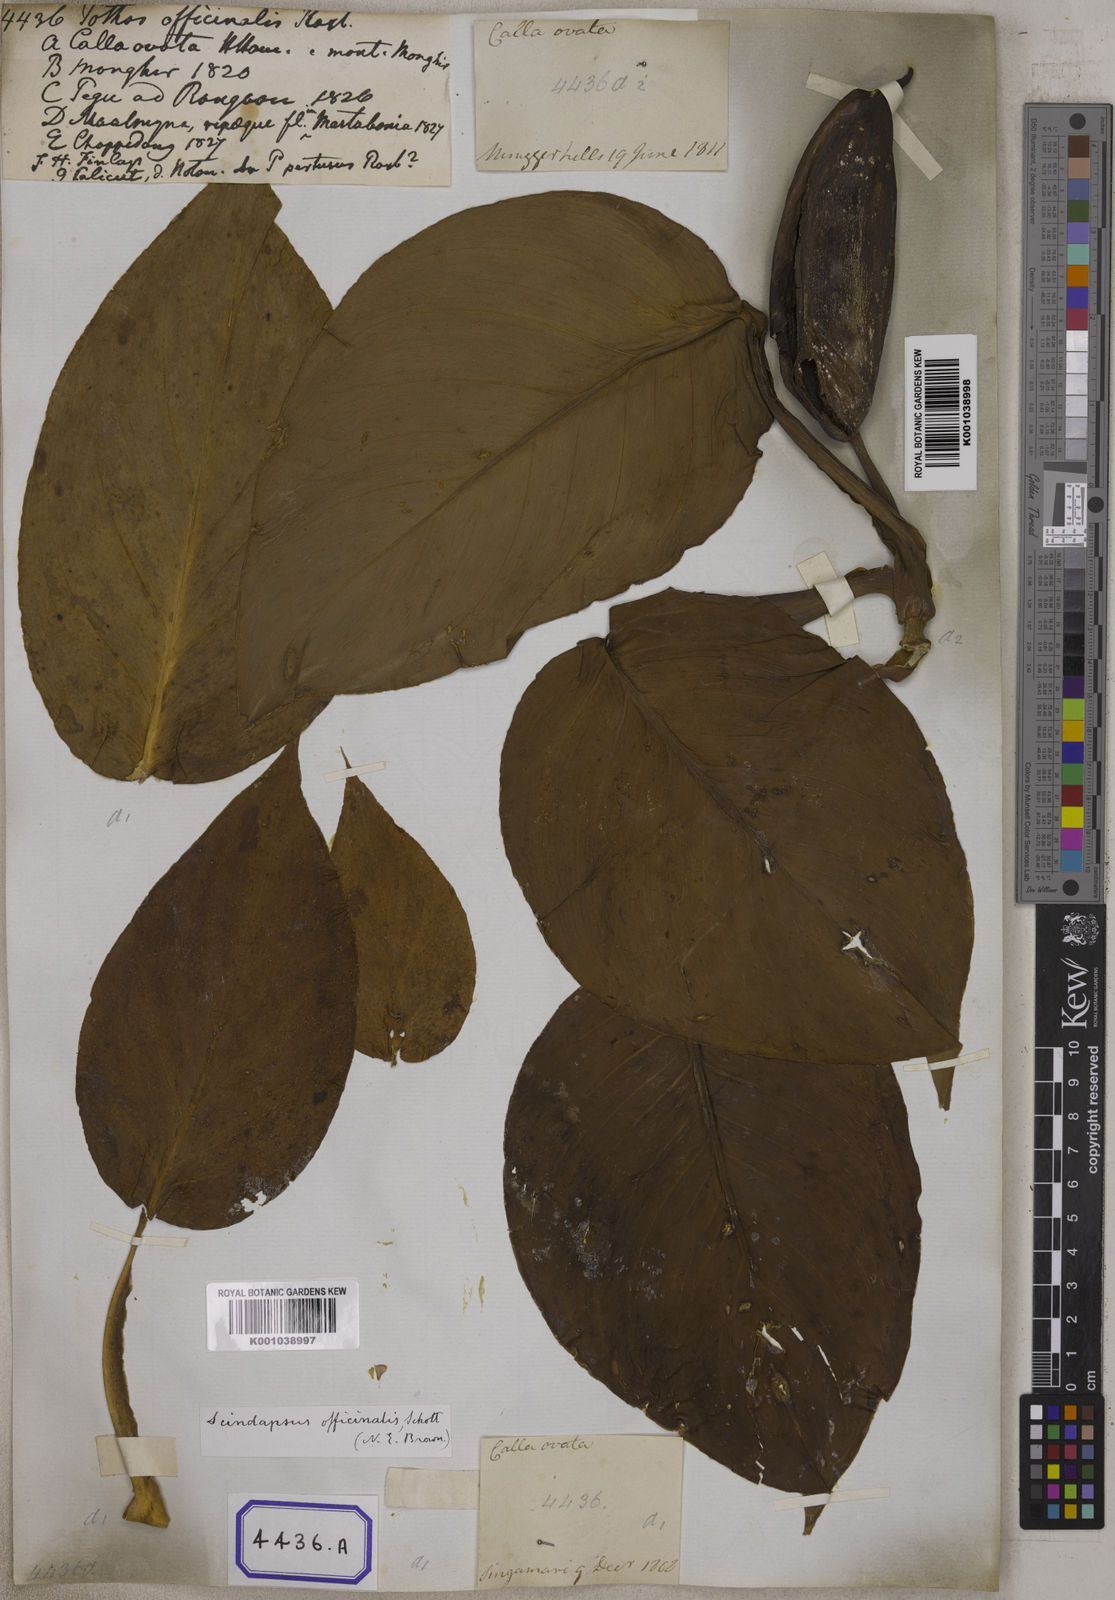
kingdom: Plantae
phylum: Tracheophyta
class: Liliopsida
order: Alismatales
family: Araceae
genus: Scindapsus
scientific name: Scindapsus officinalis
